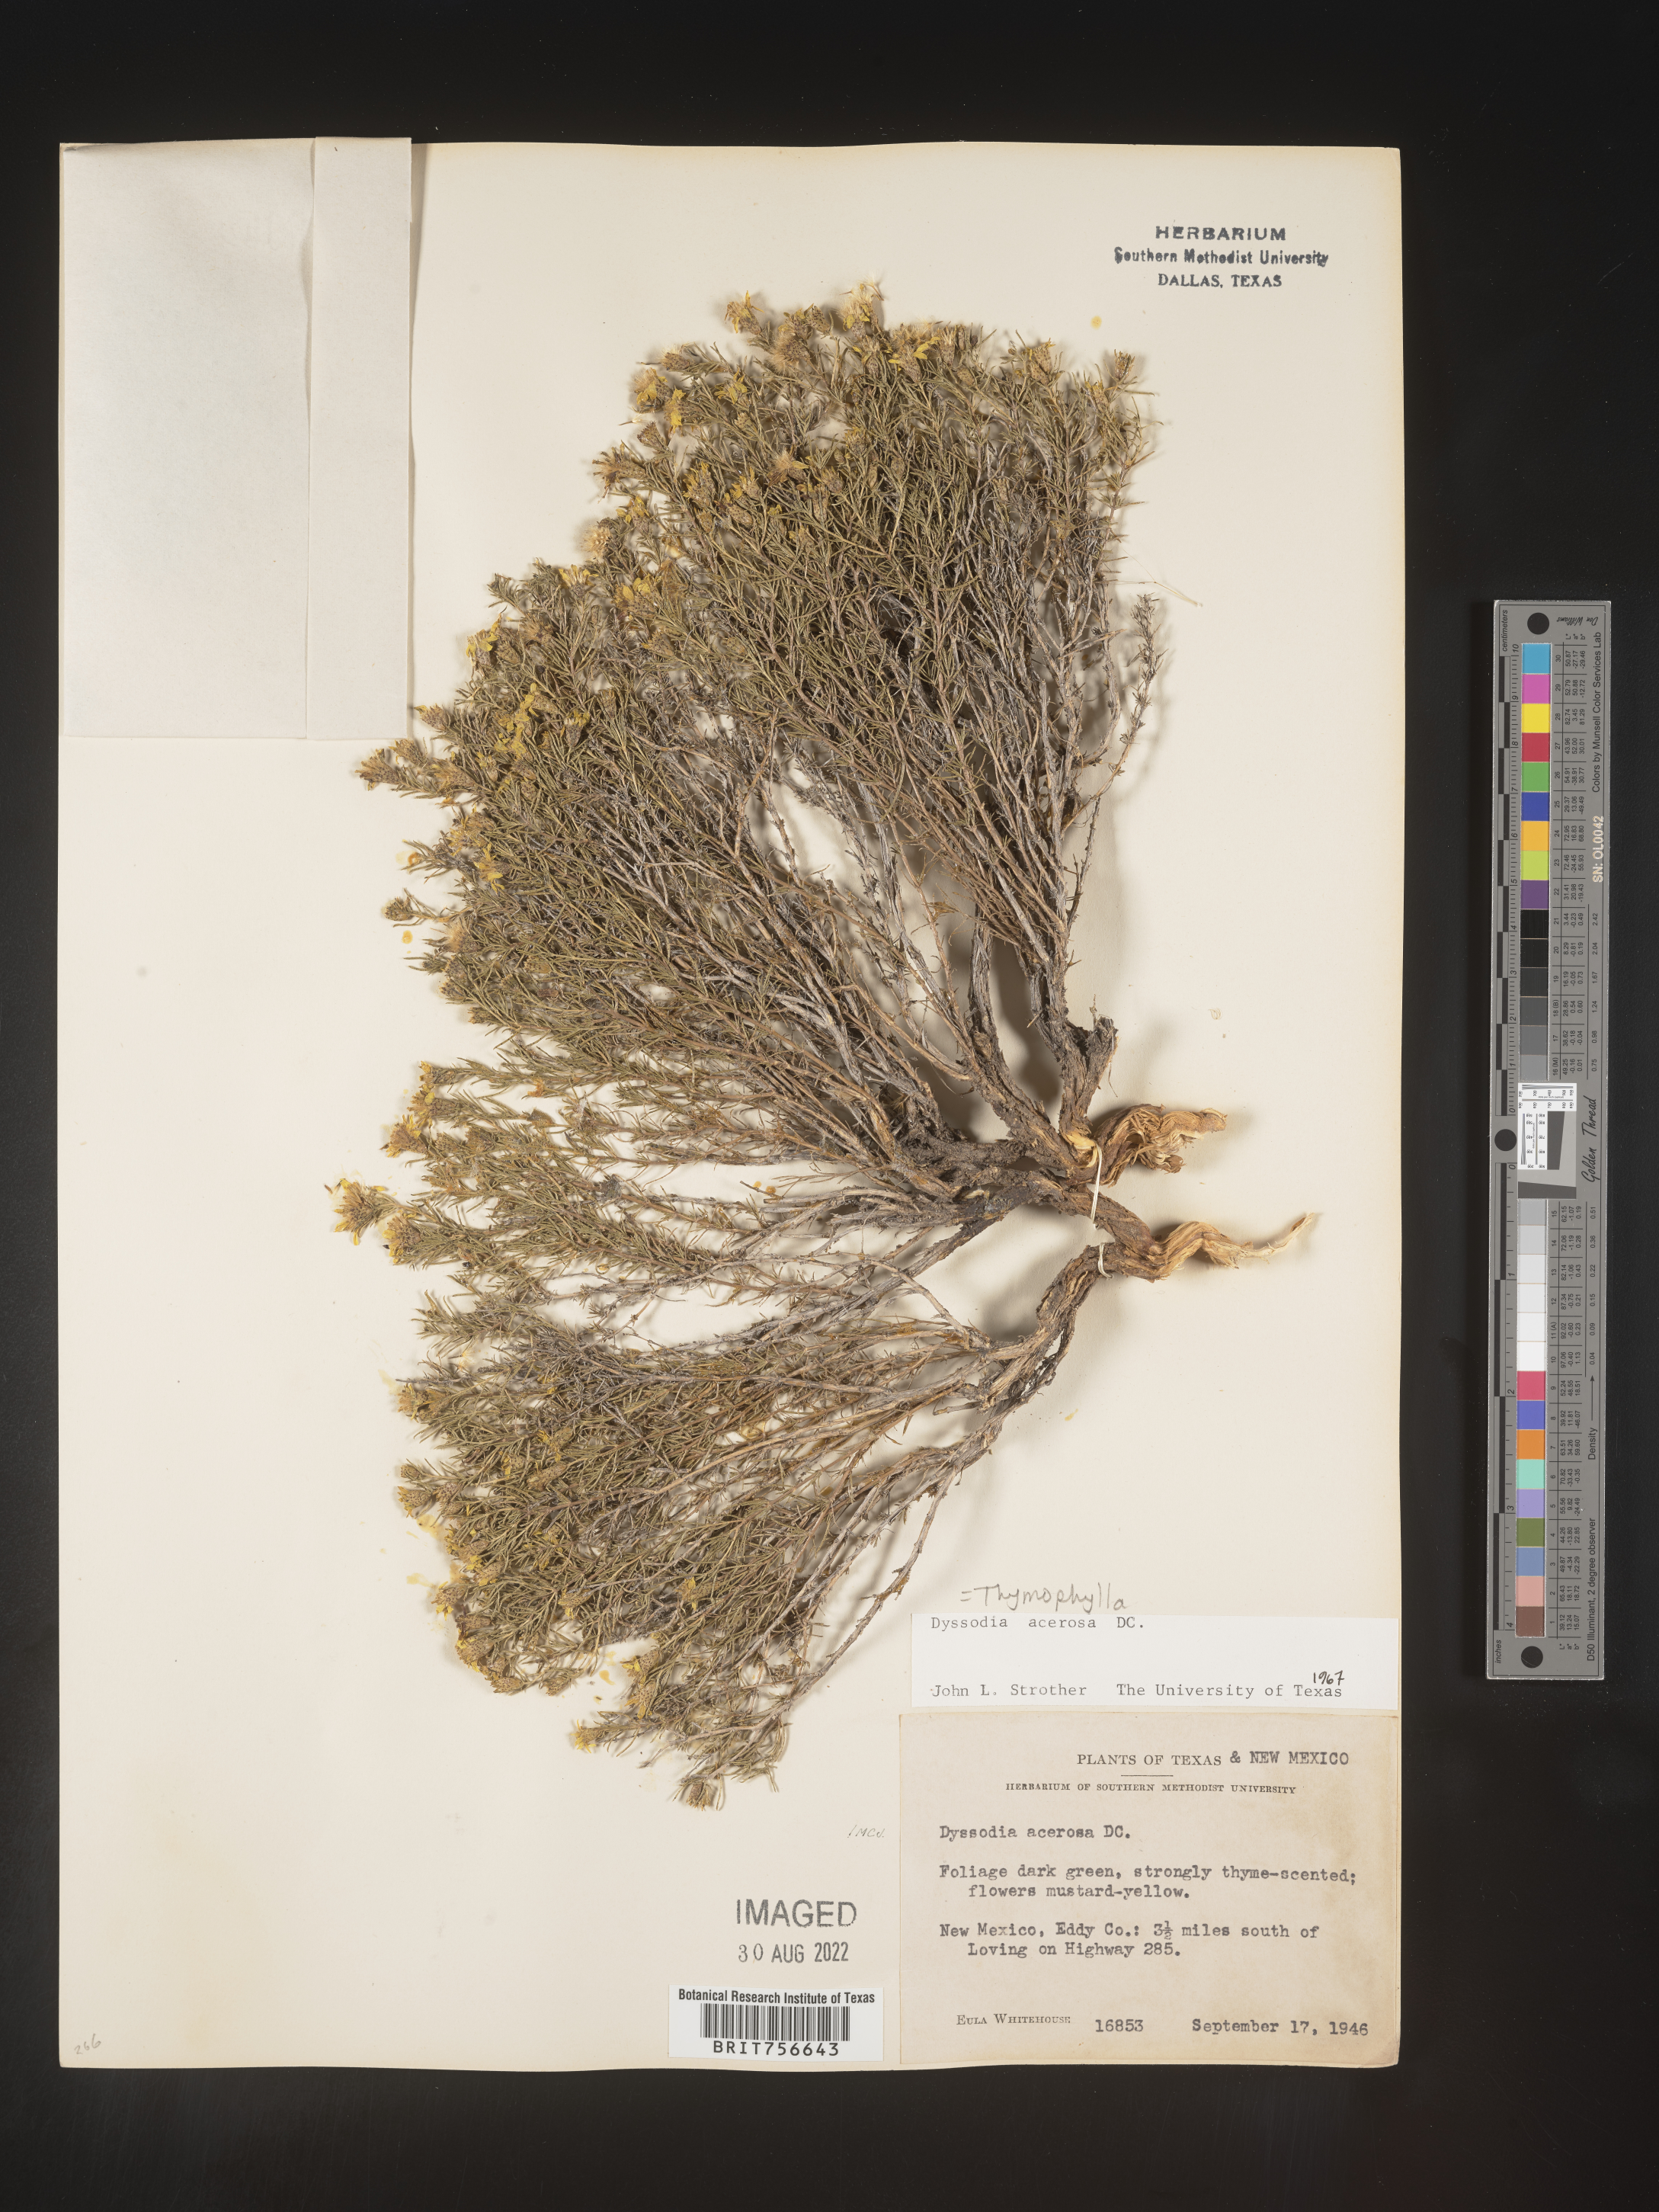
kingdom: Plantae
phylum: Tracheophyta
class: Magnoliopsida
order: Asterales
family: Asteraceae
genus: Thymophylla
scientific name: Thymophylla
